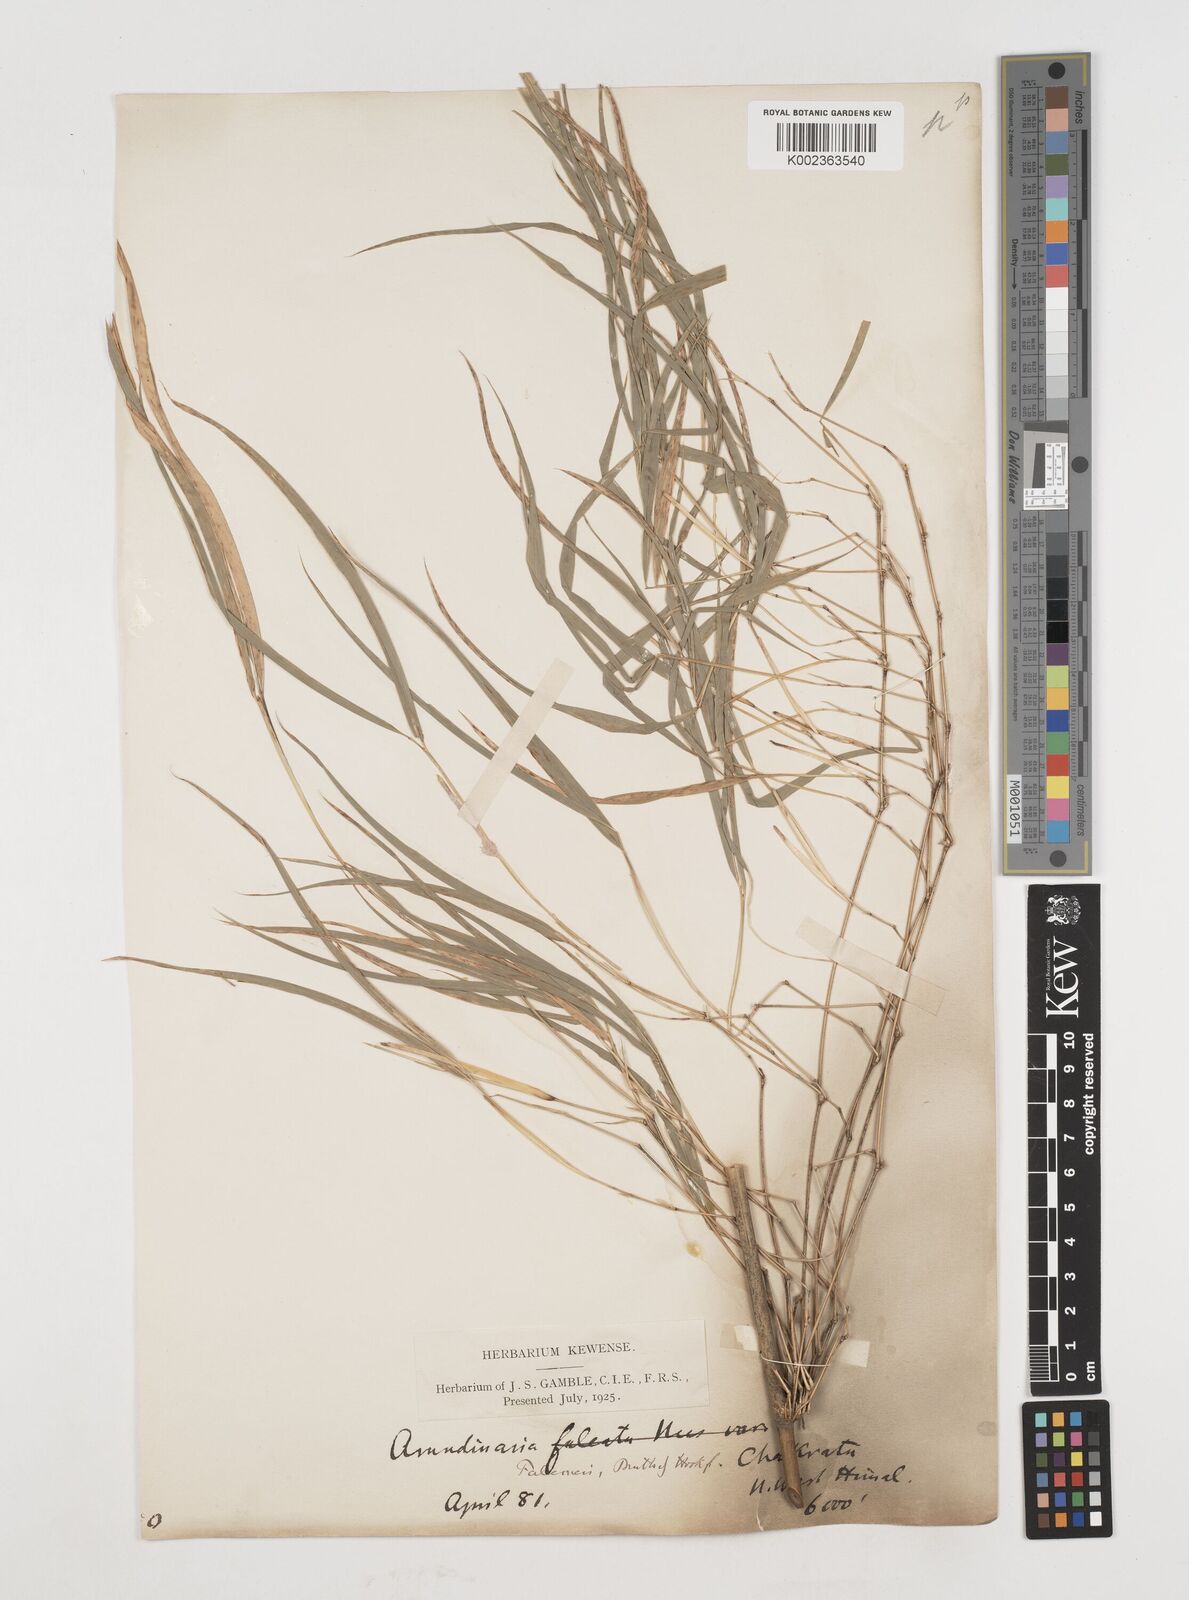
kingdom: Plantae
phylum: Tracheophyta
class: Liliopsida
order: Poales
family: Poaceae
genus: Himalayacalamus
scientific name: Himalayacalamus falconeri
